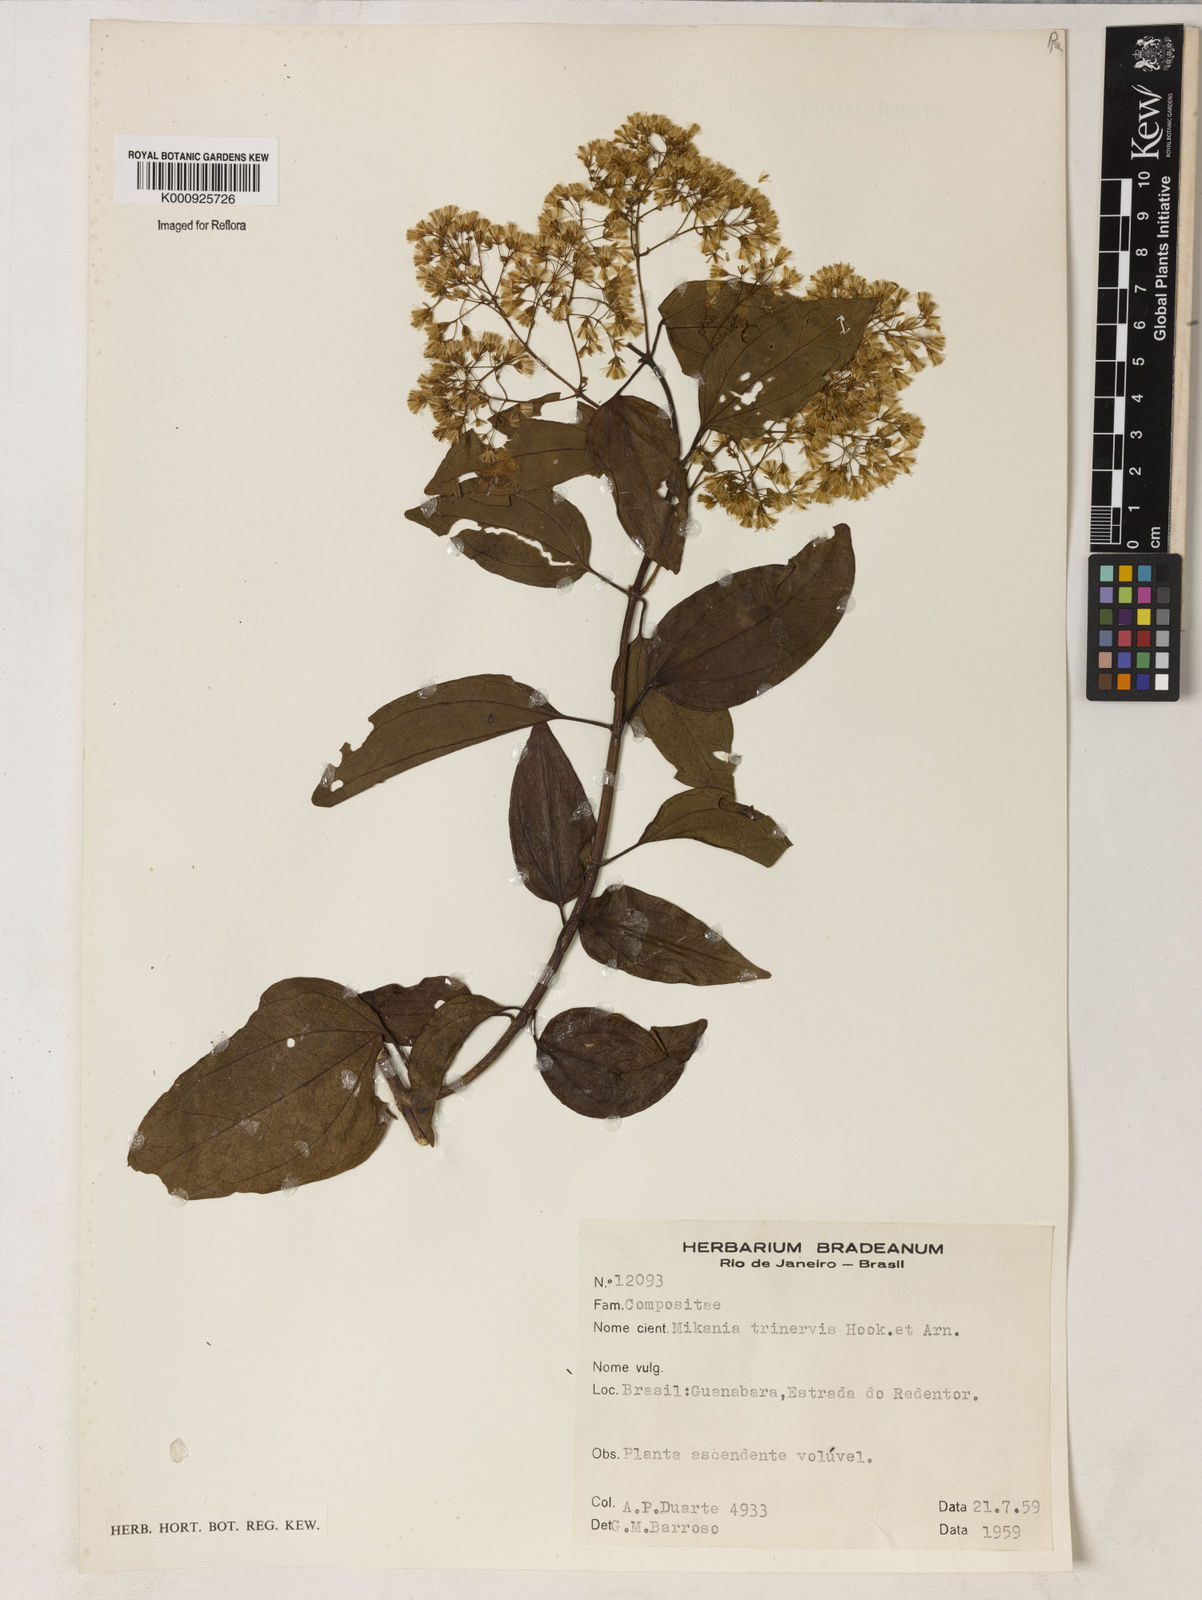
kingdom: Plantae
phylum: Tracheophyta
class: Magnoliopsida
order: Asterales
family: Asteraceae
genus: Mikania
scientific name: Mikania trinervis
